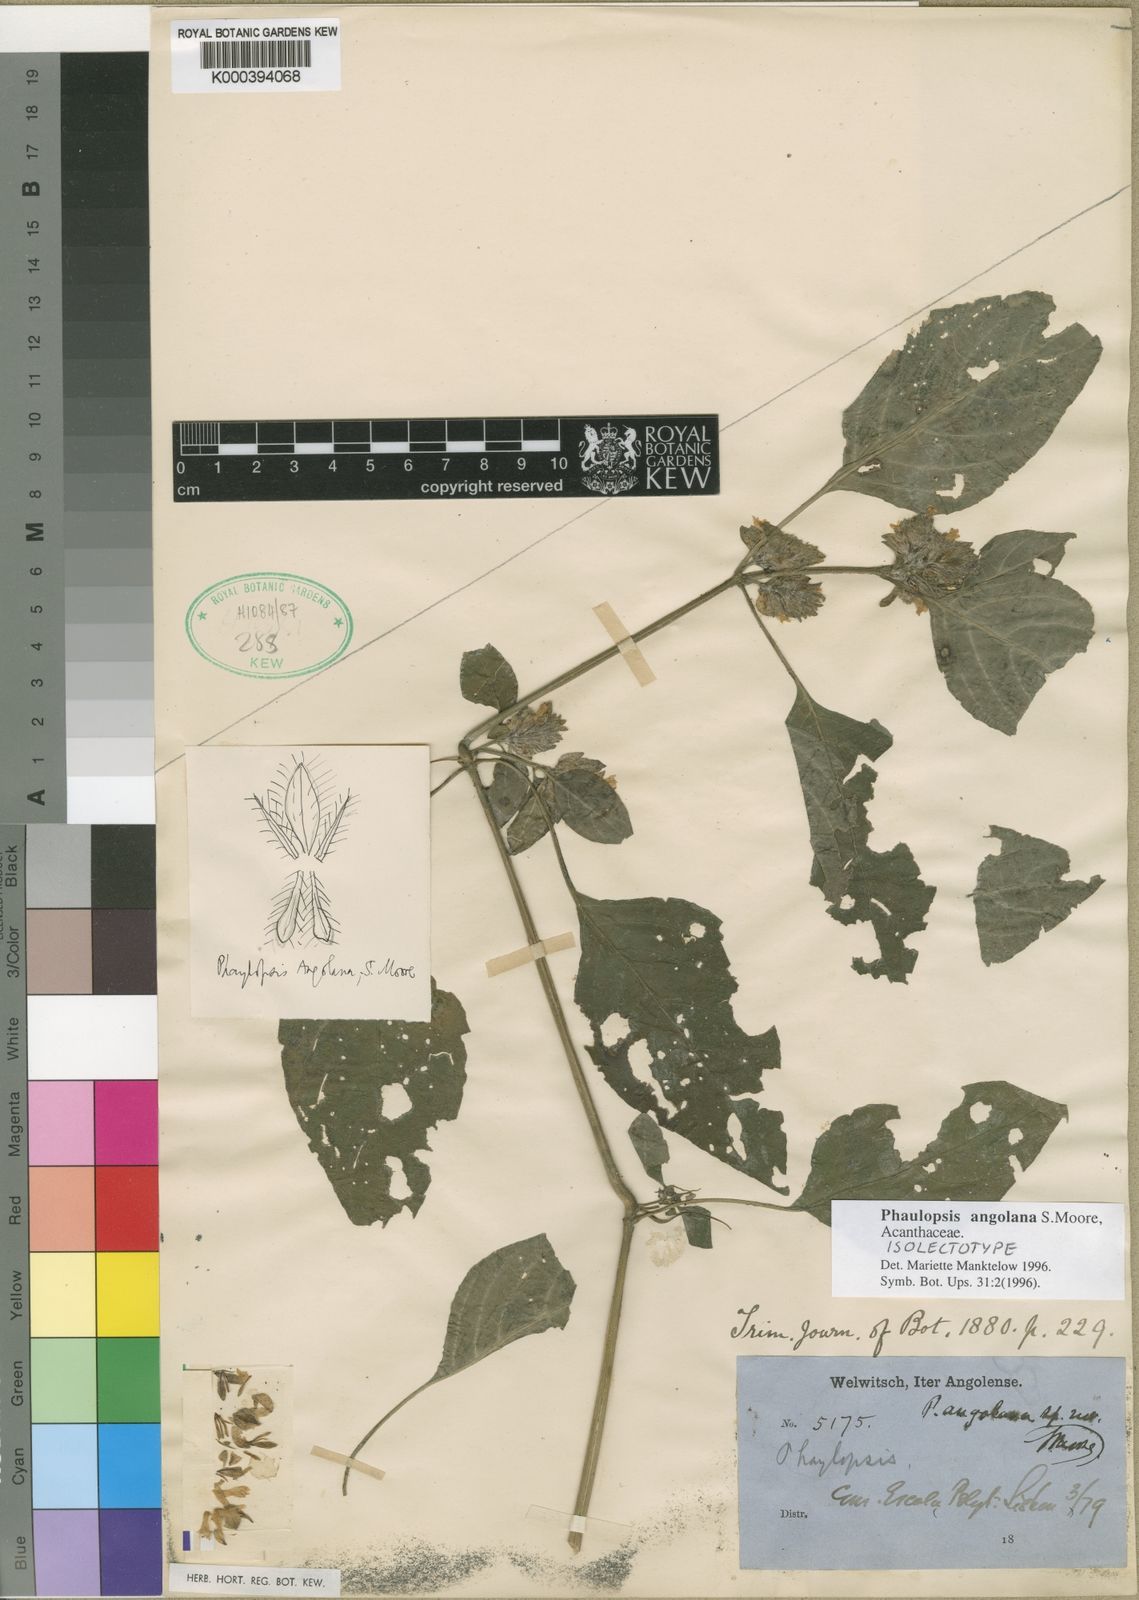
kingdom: Plantae
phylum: Tracheophyta
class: Magnoliopsida
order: Lamiales
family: Acanthaceae
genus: Phaulopsis
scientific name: Phaulopsis angolana
